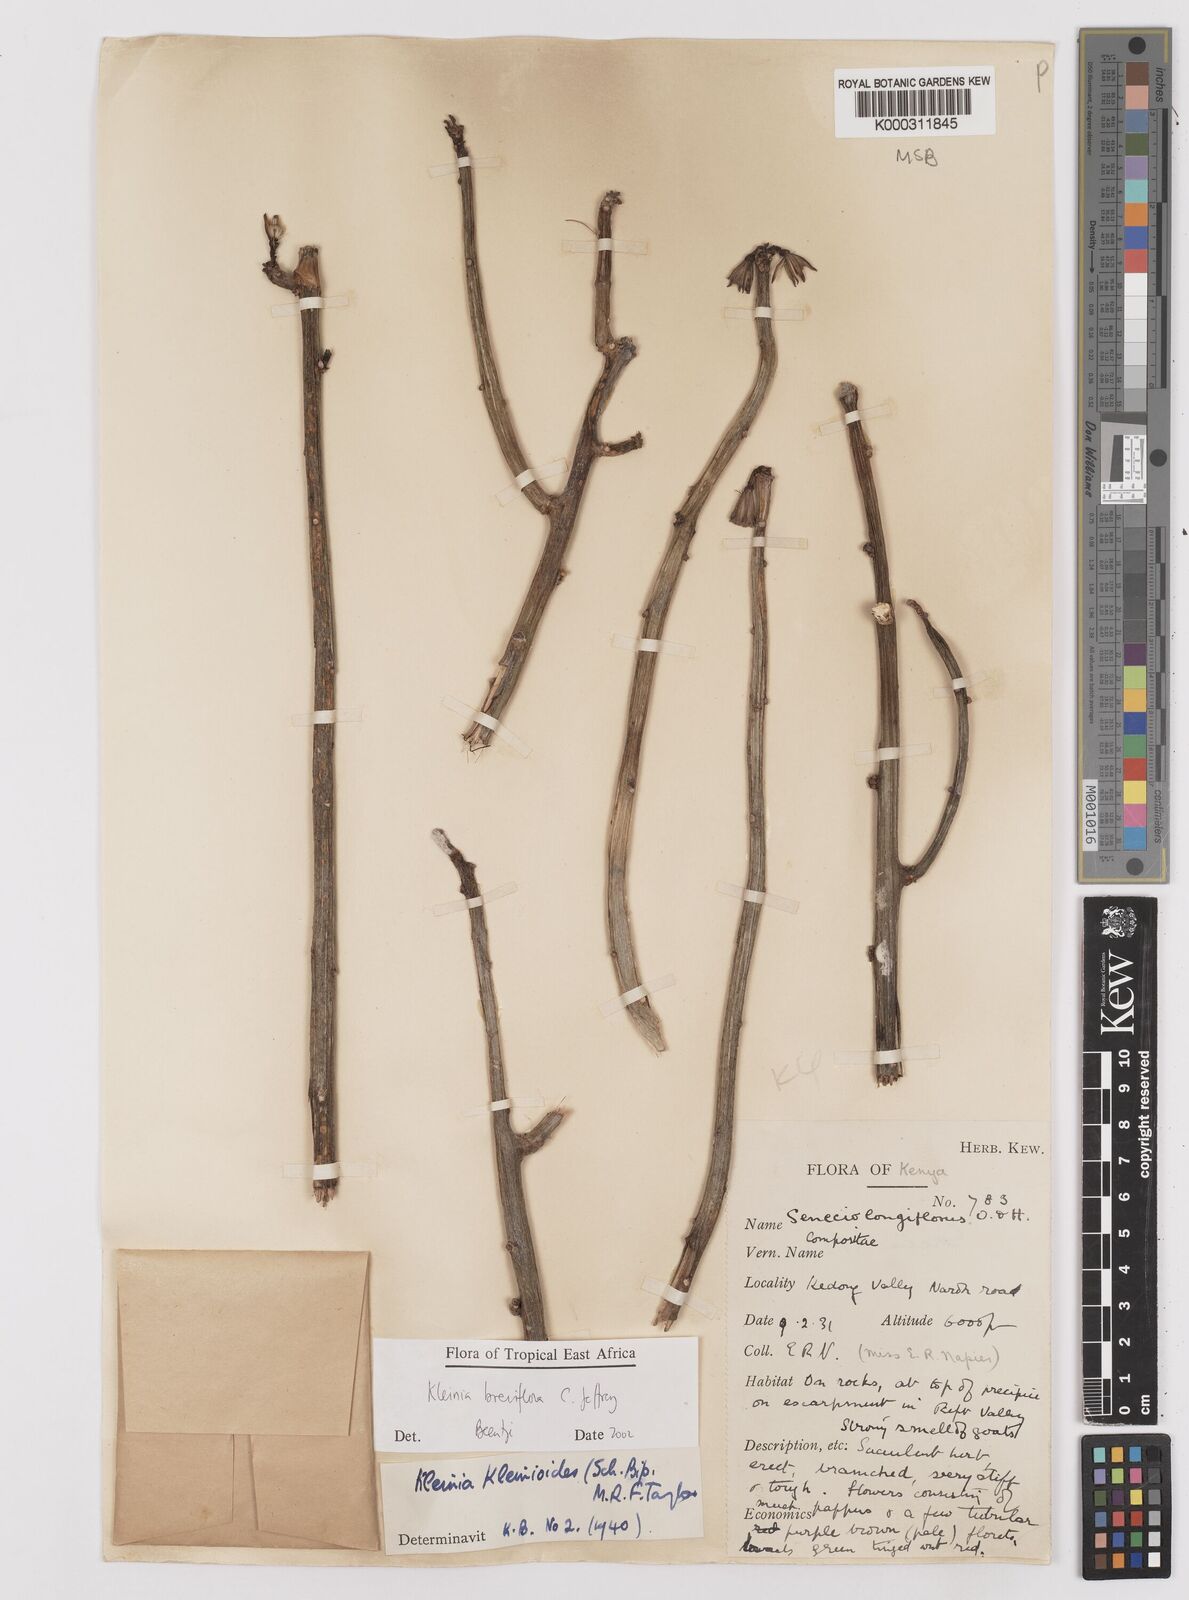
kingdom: Plantae
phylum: Tracheophyta
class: Magnoliopsida
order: Asterales
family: Asteraceae
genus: Kleinia
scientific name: Kleinia polycotoma
